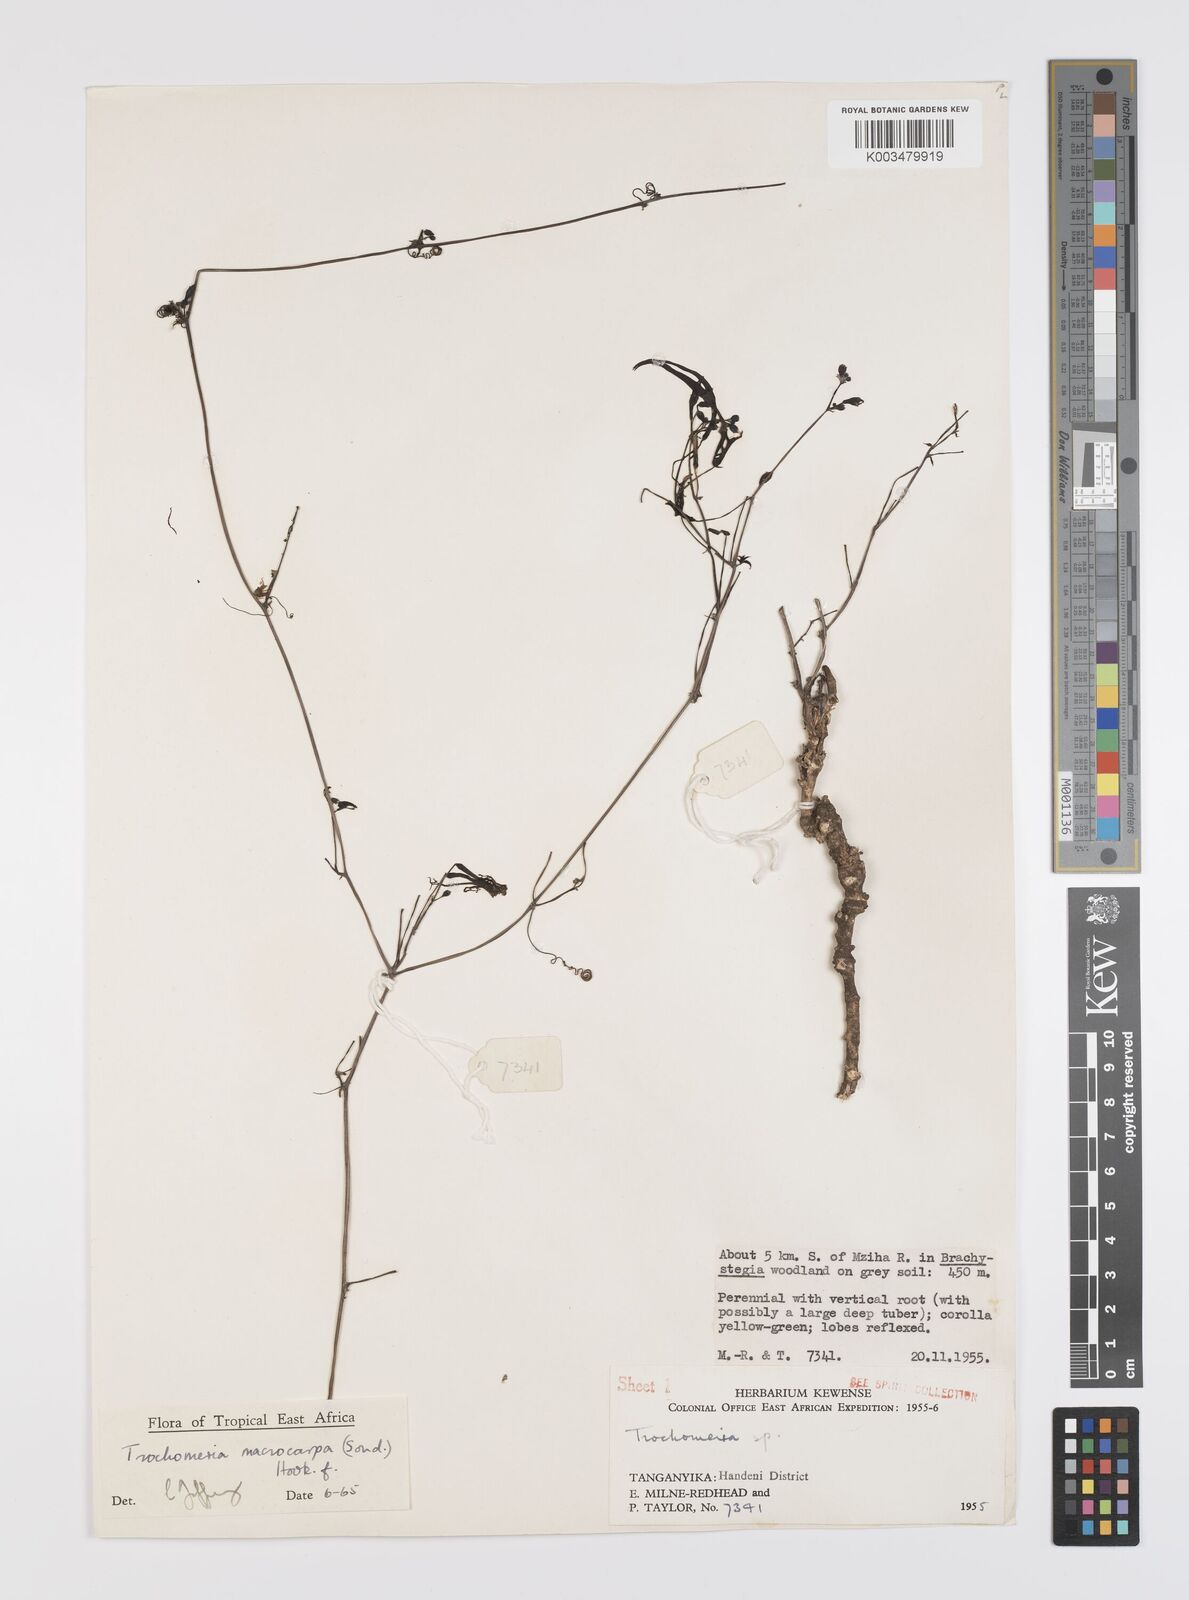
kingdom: Plantae
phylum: Tracheophyta
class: Magnoliopsida
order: Cucurbitales
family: Cucurbitaceae
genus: Trochomeria
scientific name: Trochomeria macrocarpa
